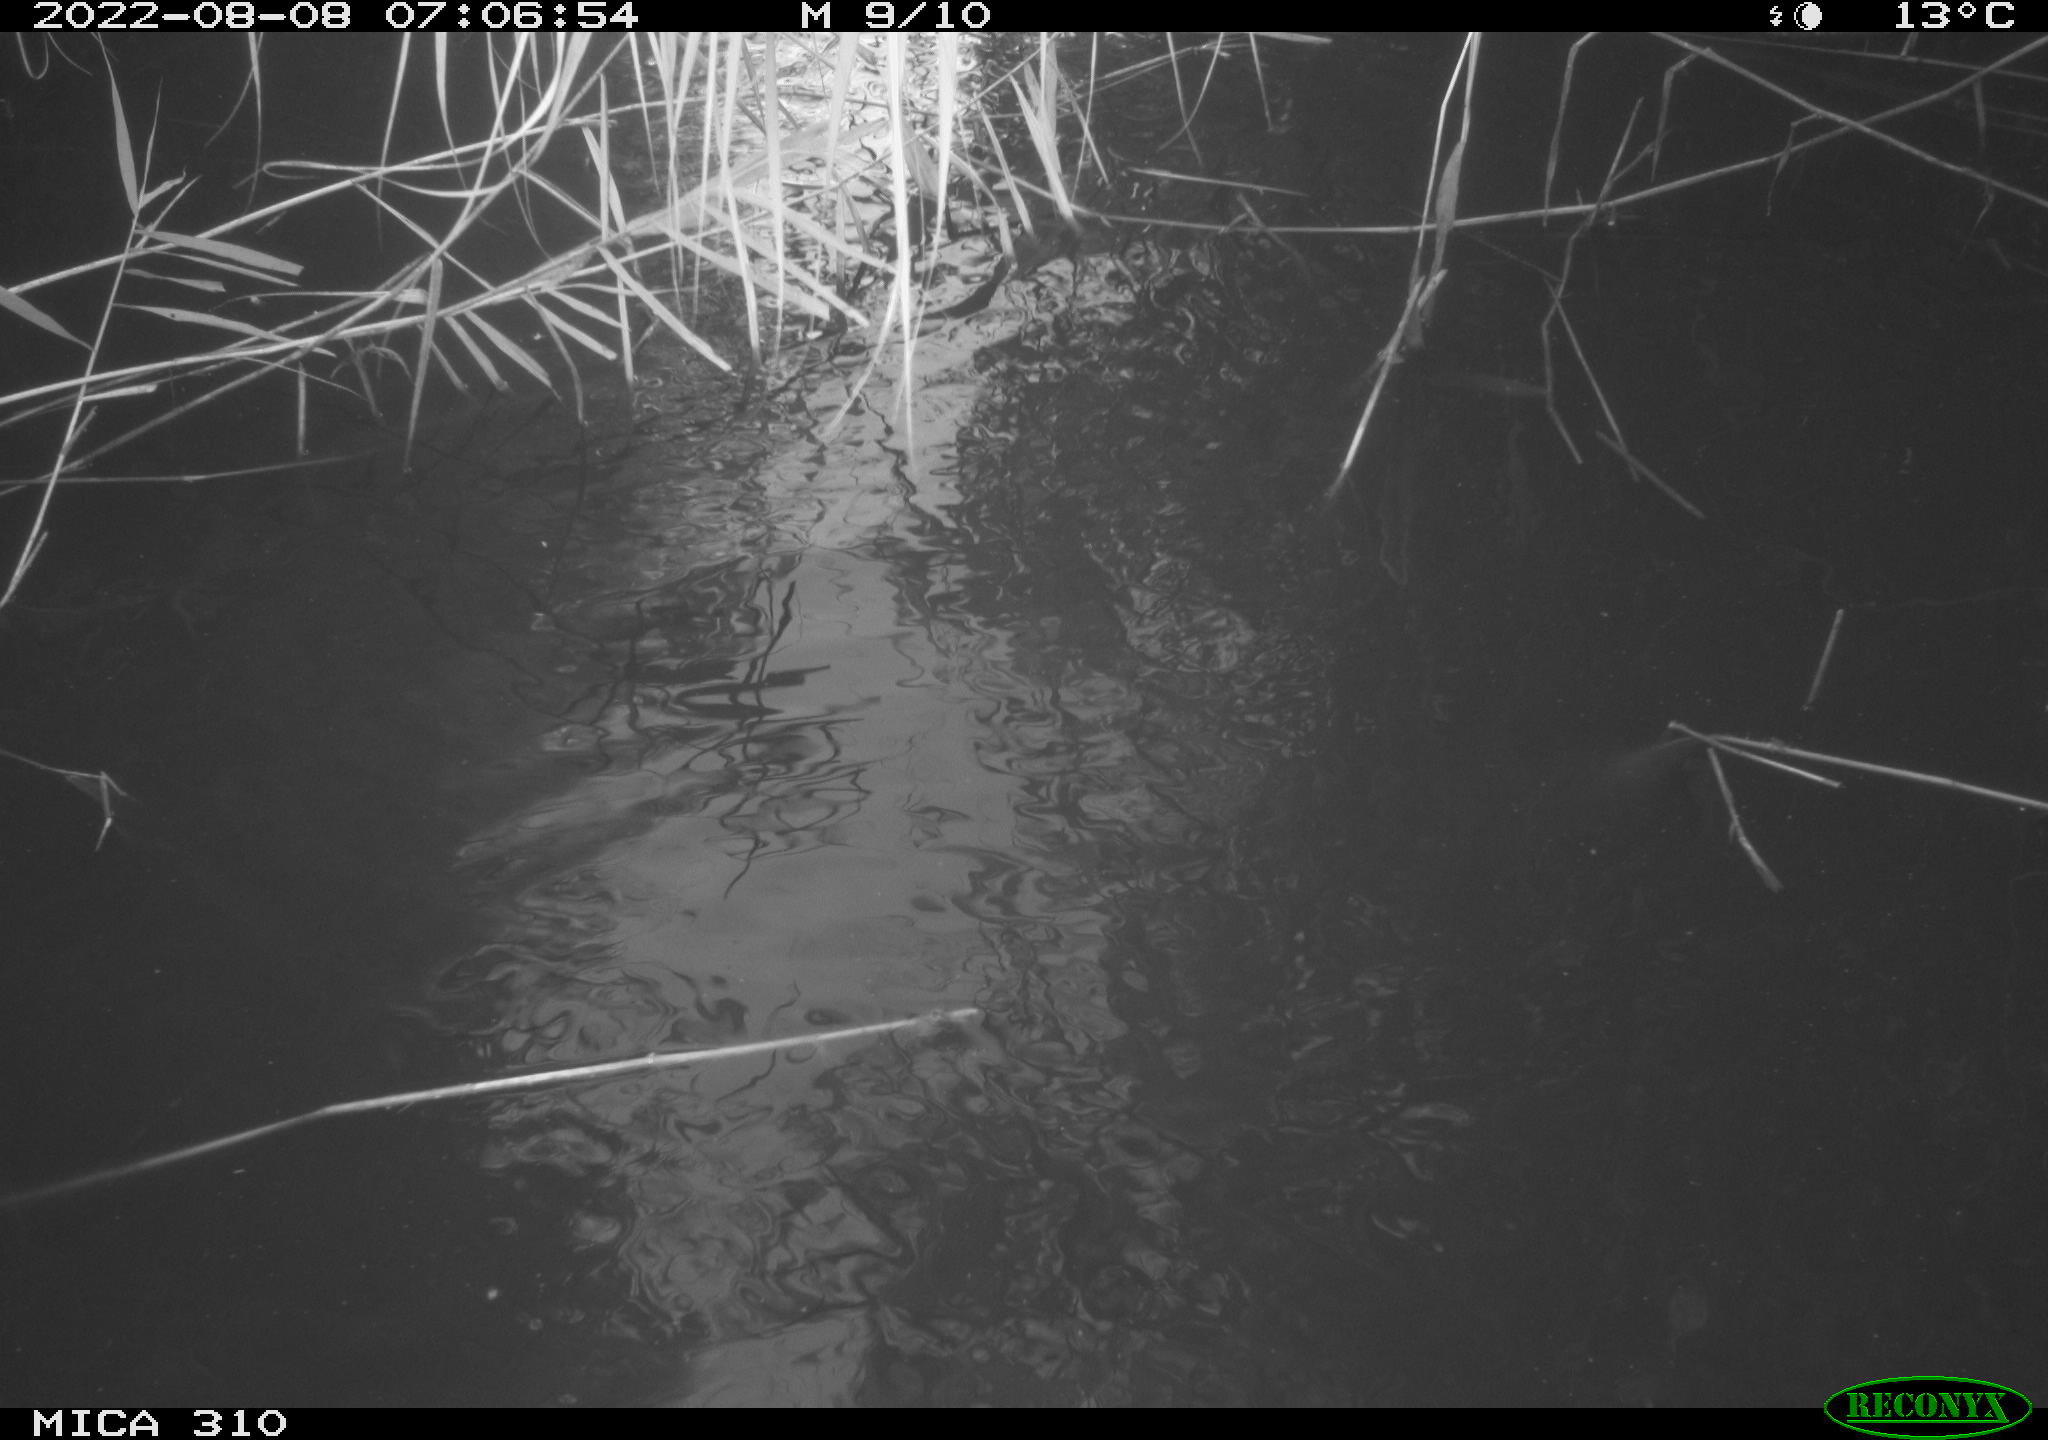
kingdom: Animalia
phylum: Chordata
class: Aves
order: Gruiformes
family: Rallidae
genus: Fulica
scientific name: Fulica atra
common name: Eurasian coot
